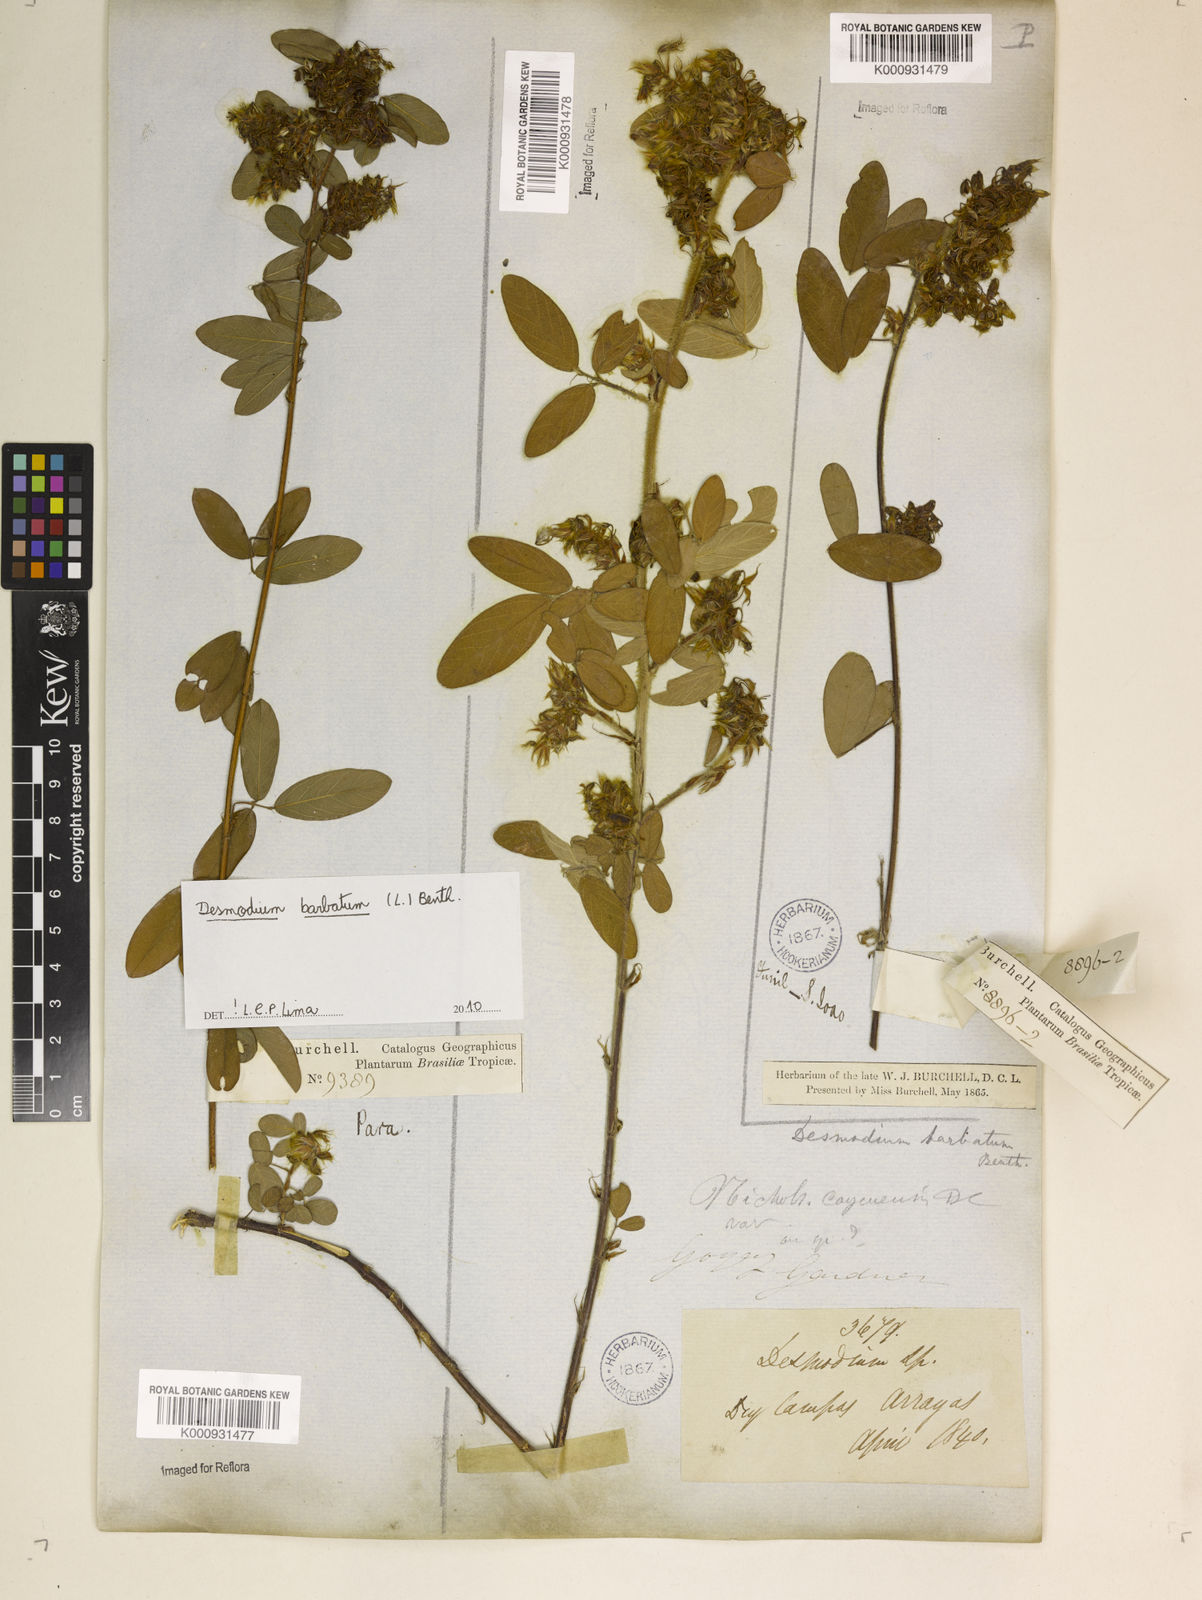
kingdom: Plantae
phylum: Tracheophyta
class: Magnoliopsida
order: Fabales
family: Fabaceae
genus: Grona
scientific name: Grona barbata
